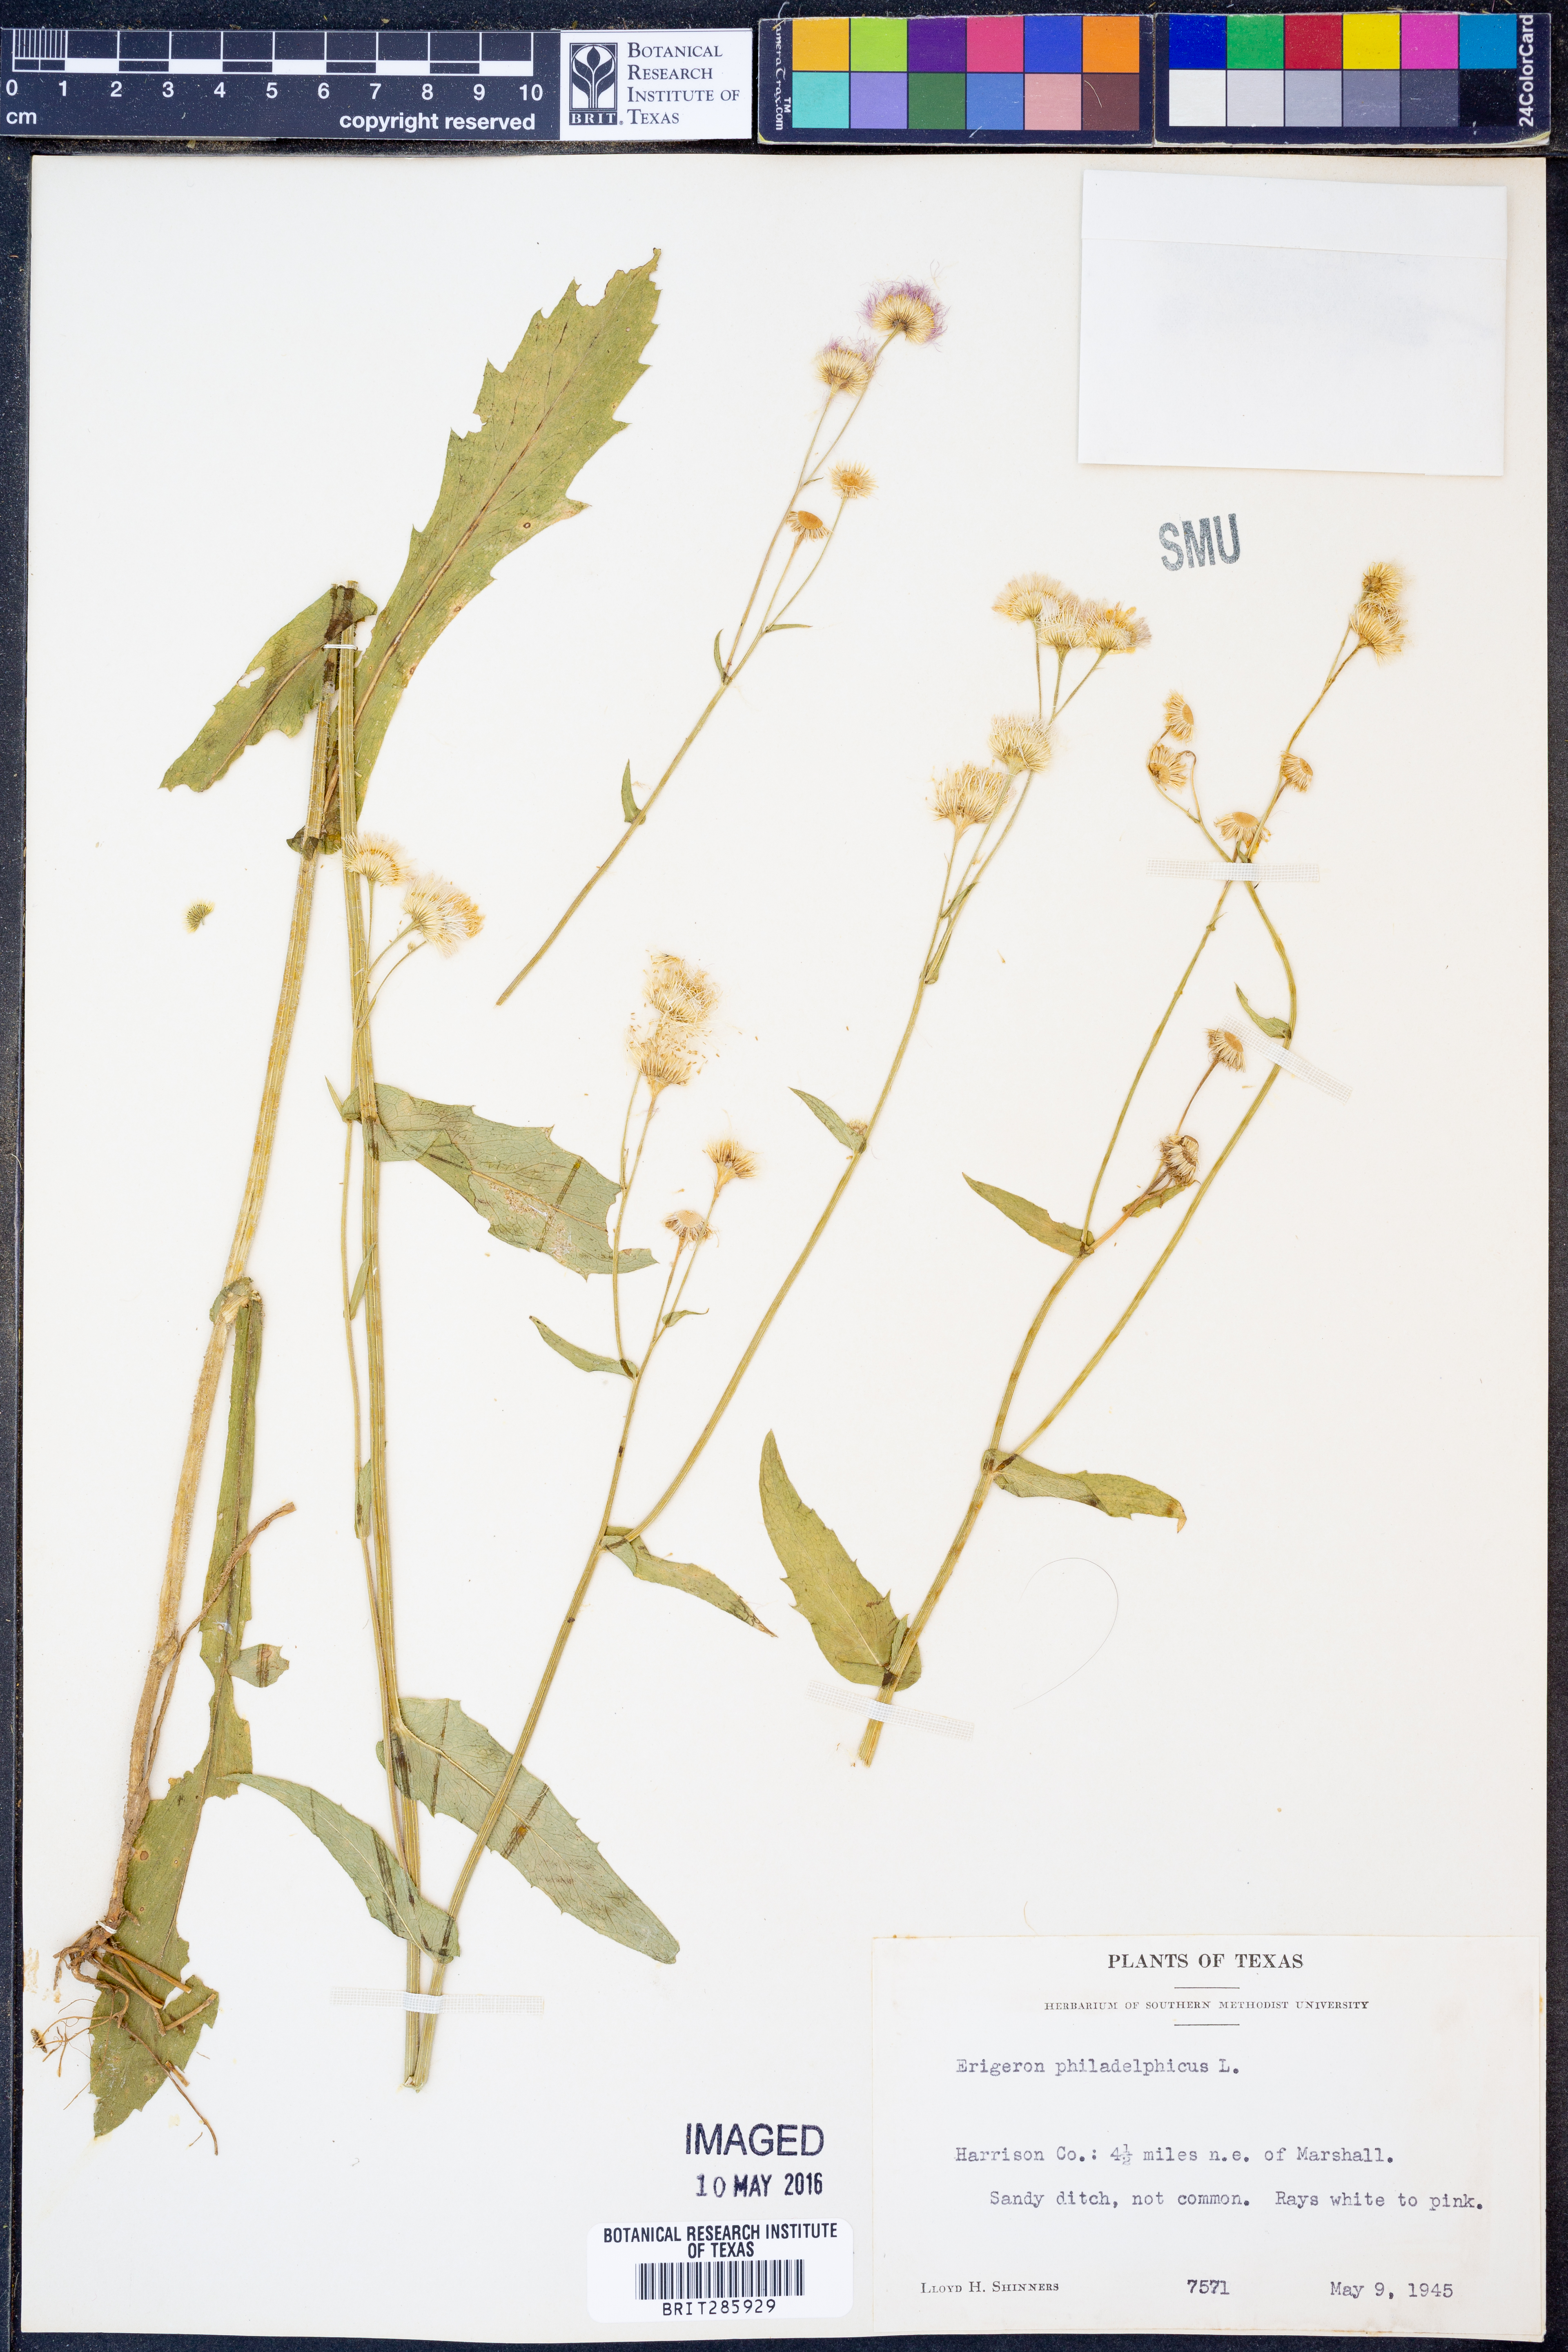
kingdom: Plantae
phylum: Tracheophyta
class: Magnoliopsida
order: Asterales
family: Asteraceae
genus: Erigeron
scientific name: Erigeron philadelphicus
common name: Robin's-plantain
